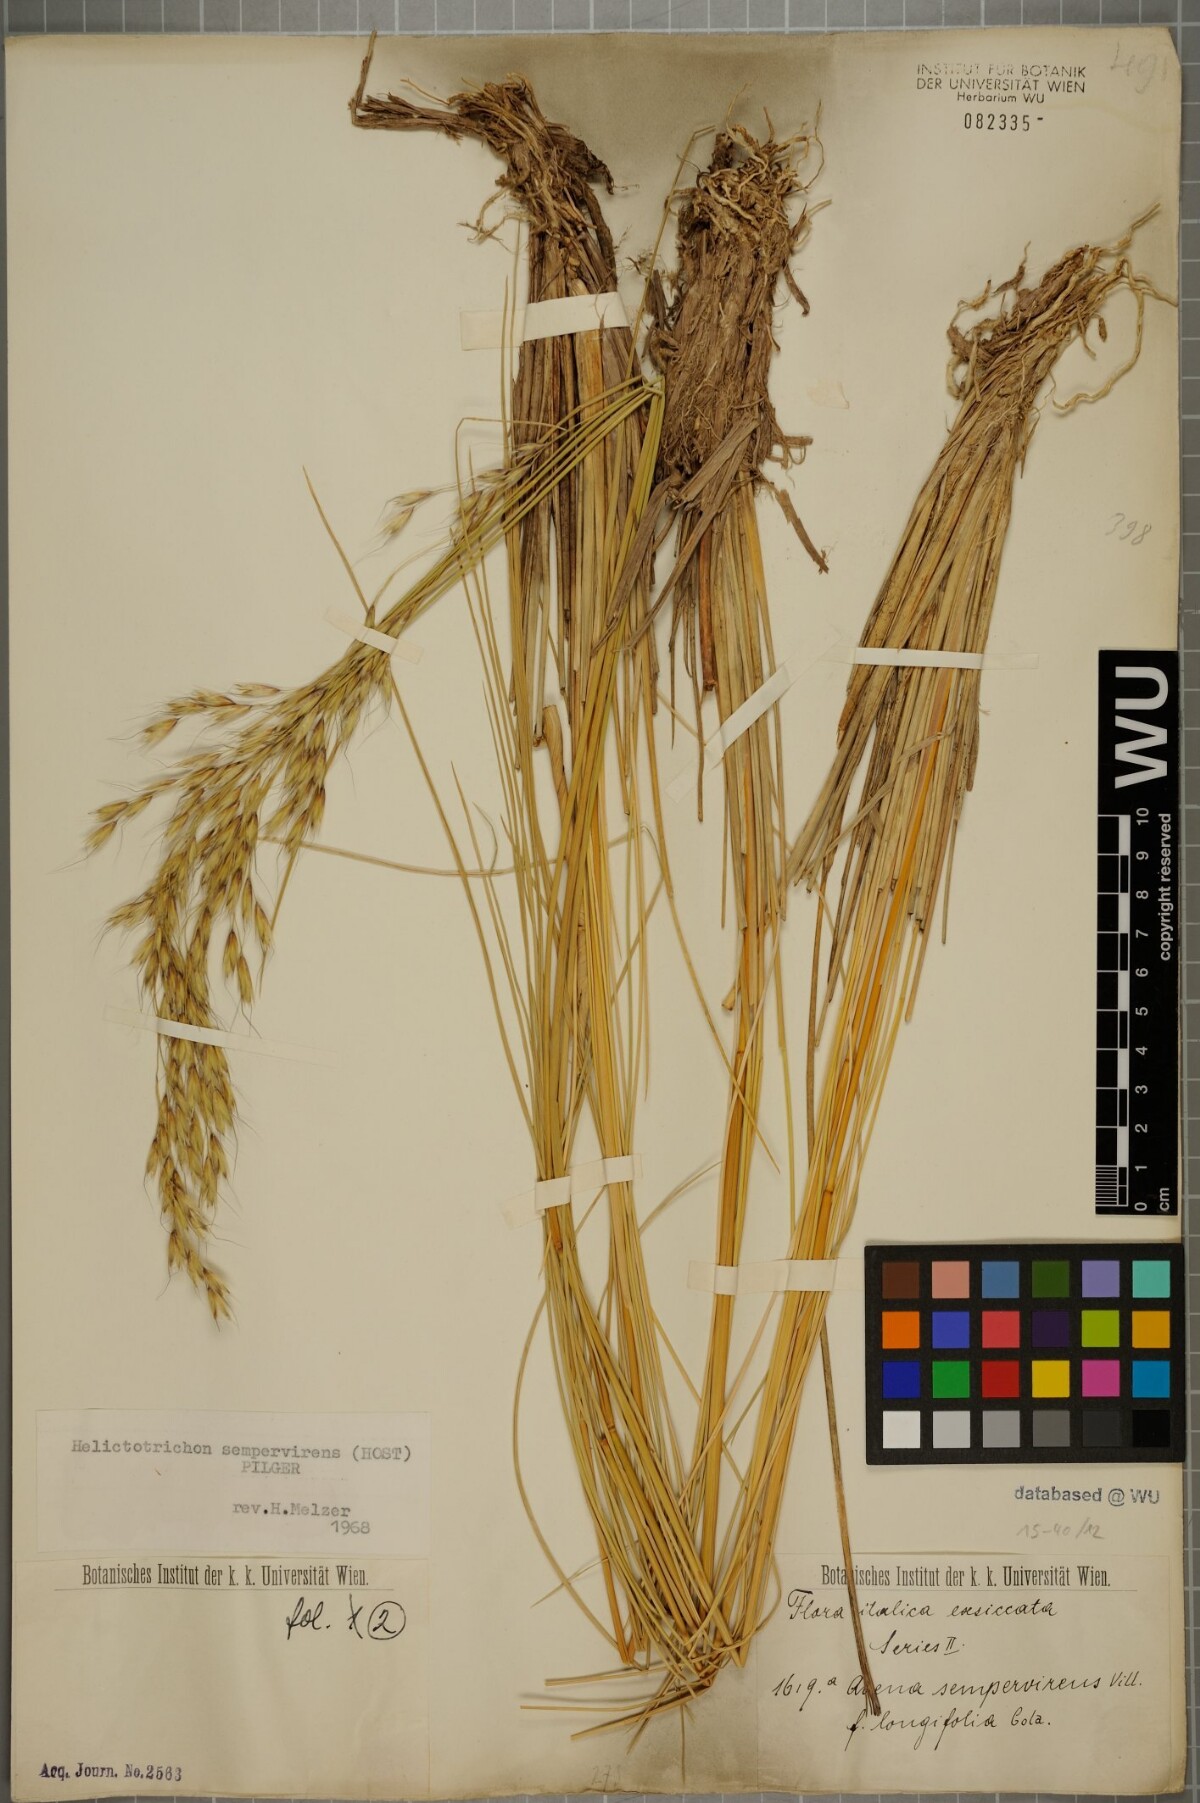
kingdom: Plantae
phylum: Tracheophyta
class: Liliopsida
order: Poales
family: Poaceae
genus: Helictotrichon
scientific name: Helictotrichon sempervirens
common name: Blue oat-grass
